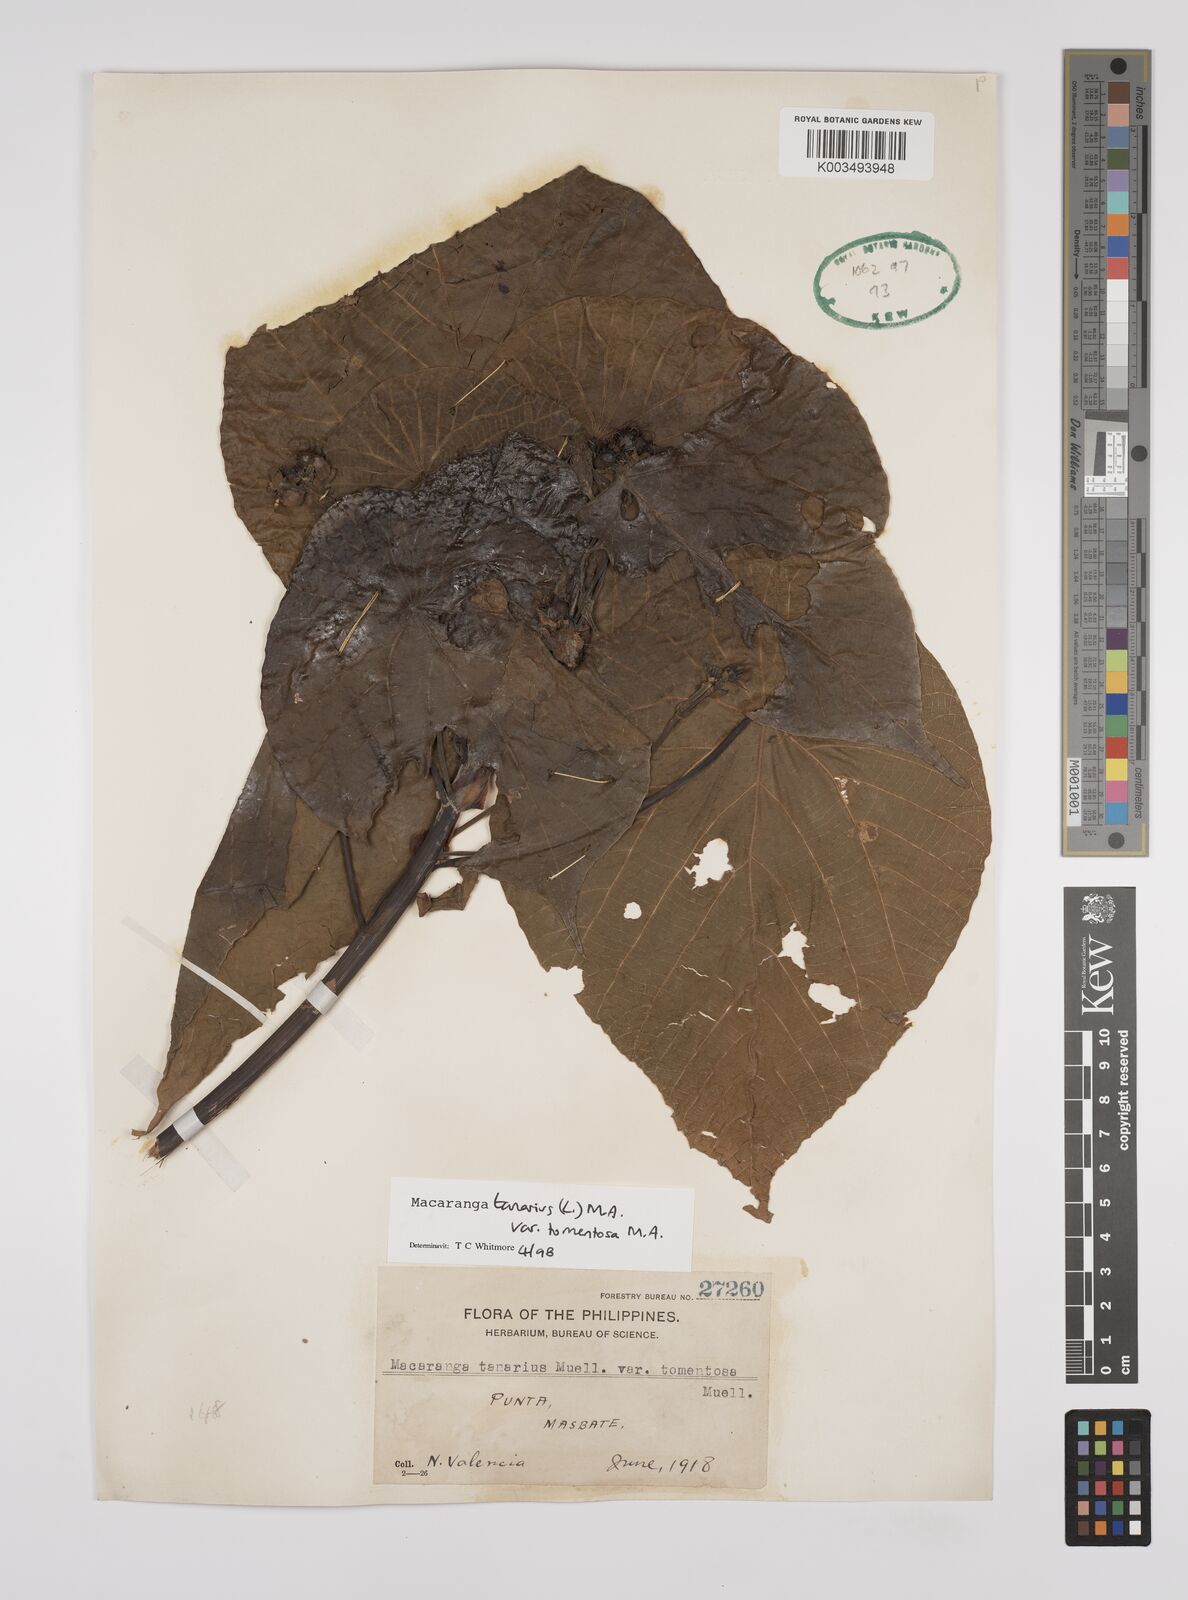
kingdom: Plantae
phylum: Tracheophyta
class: Magnoliopsida
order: Malpighiales
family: Euphorbiaceae
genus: Macaranga
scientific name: Macaranga tanarius
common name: Parasol leaf tree
